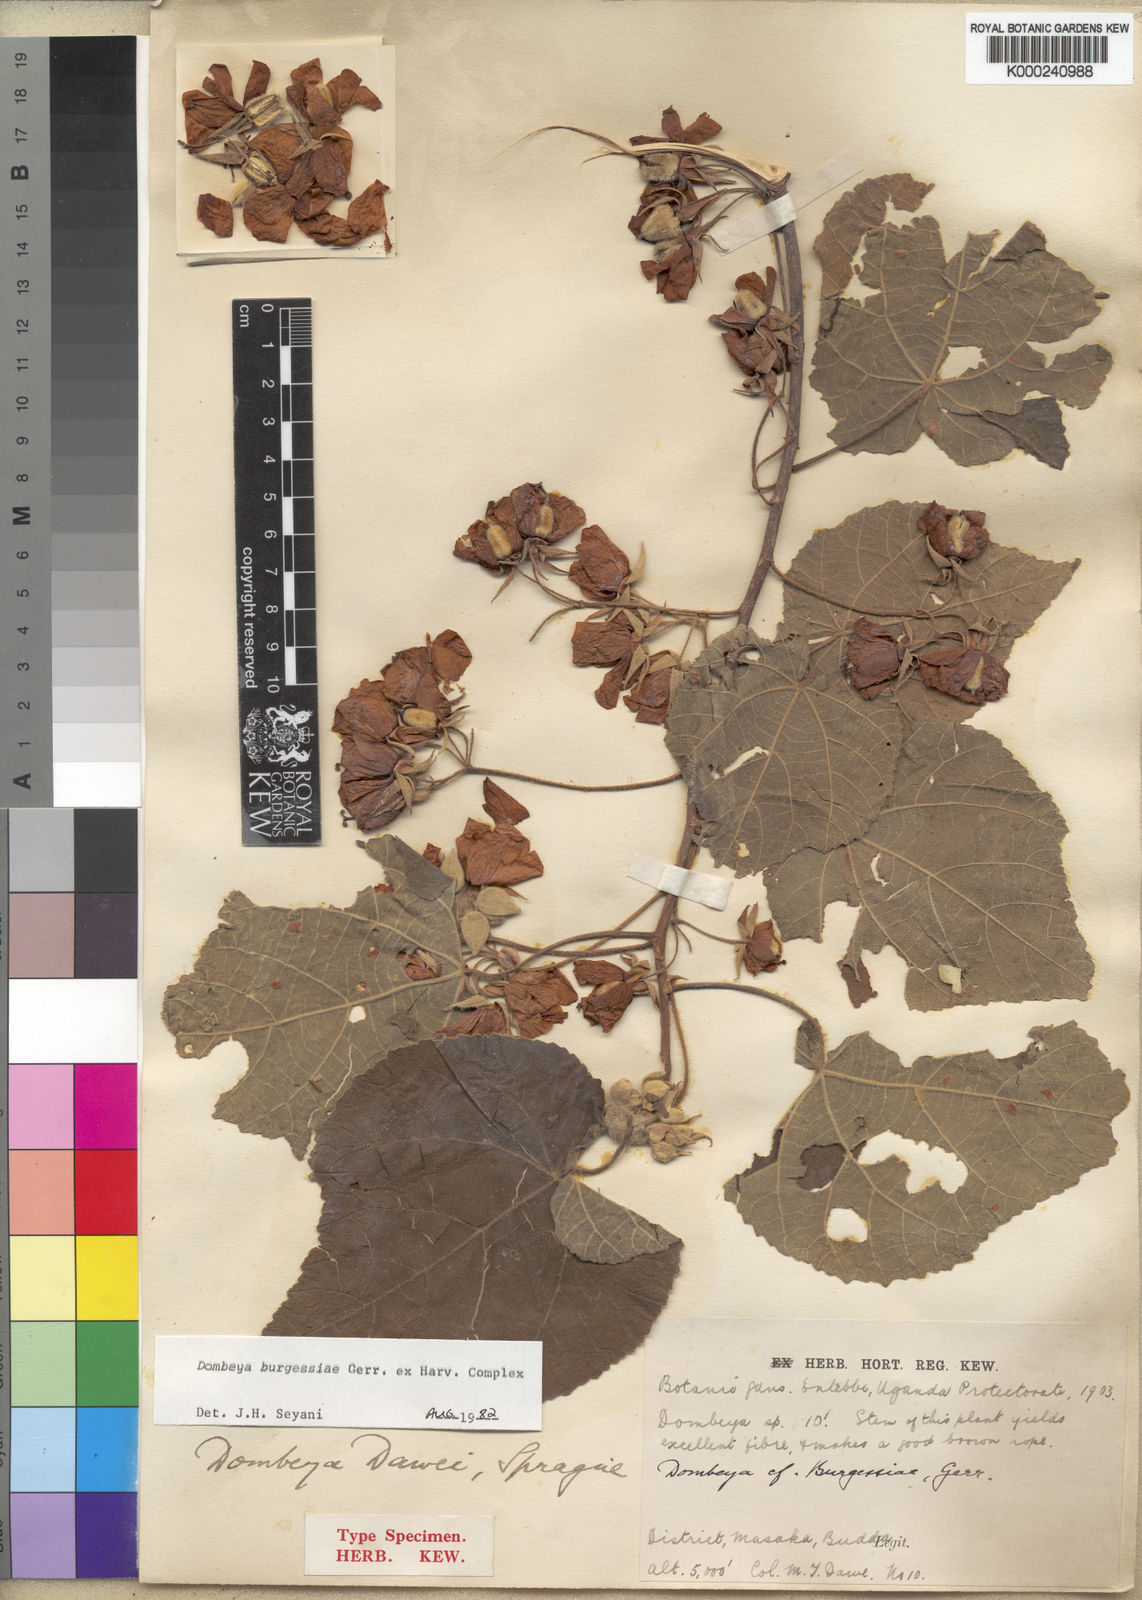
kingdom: Plantae
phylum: Tracheophyta
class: Magnoliopsida
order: Malvales
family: Malvaceae
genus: Dombeya
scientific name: Dombeya burgessiae
